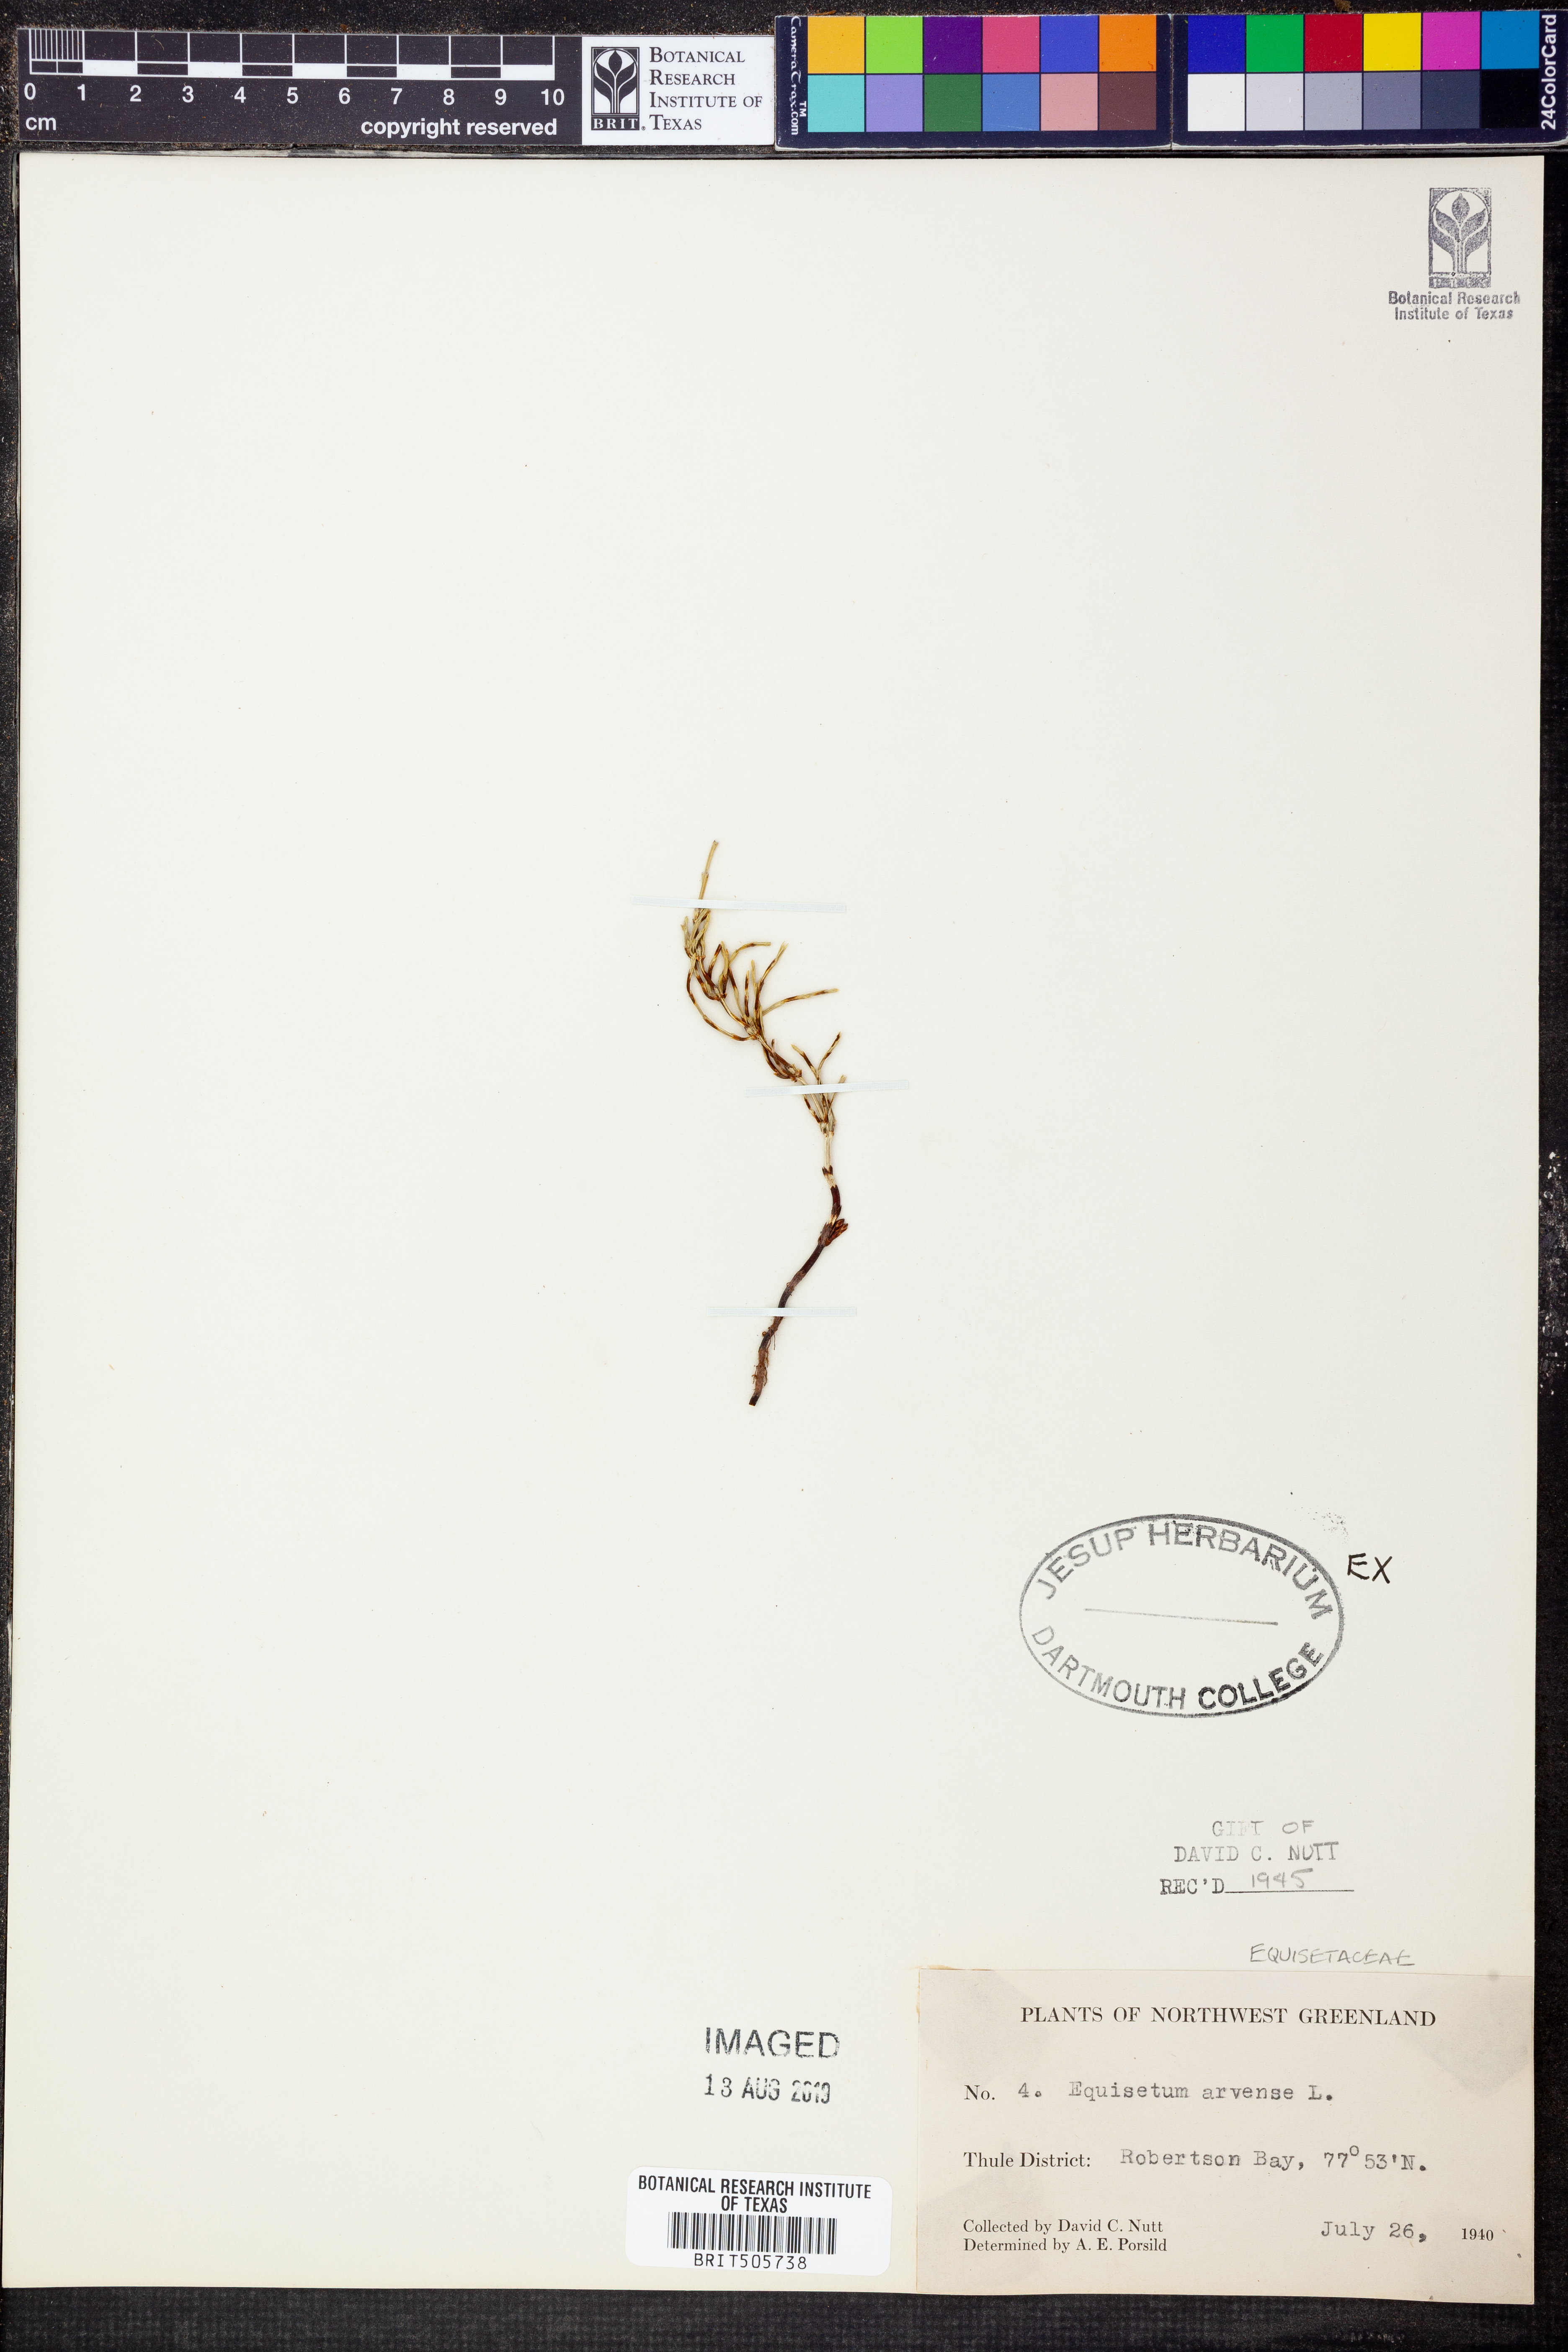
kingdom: Plantae
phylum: Tracheophyta
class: Polypodiopsida
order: Equisetales
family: Equisetaceae
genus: Equisetum
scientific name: Equisetum arvense
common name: Field horsetail
